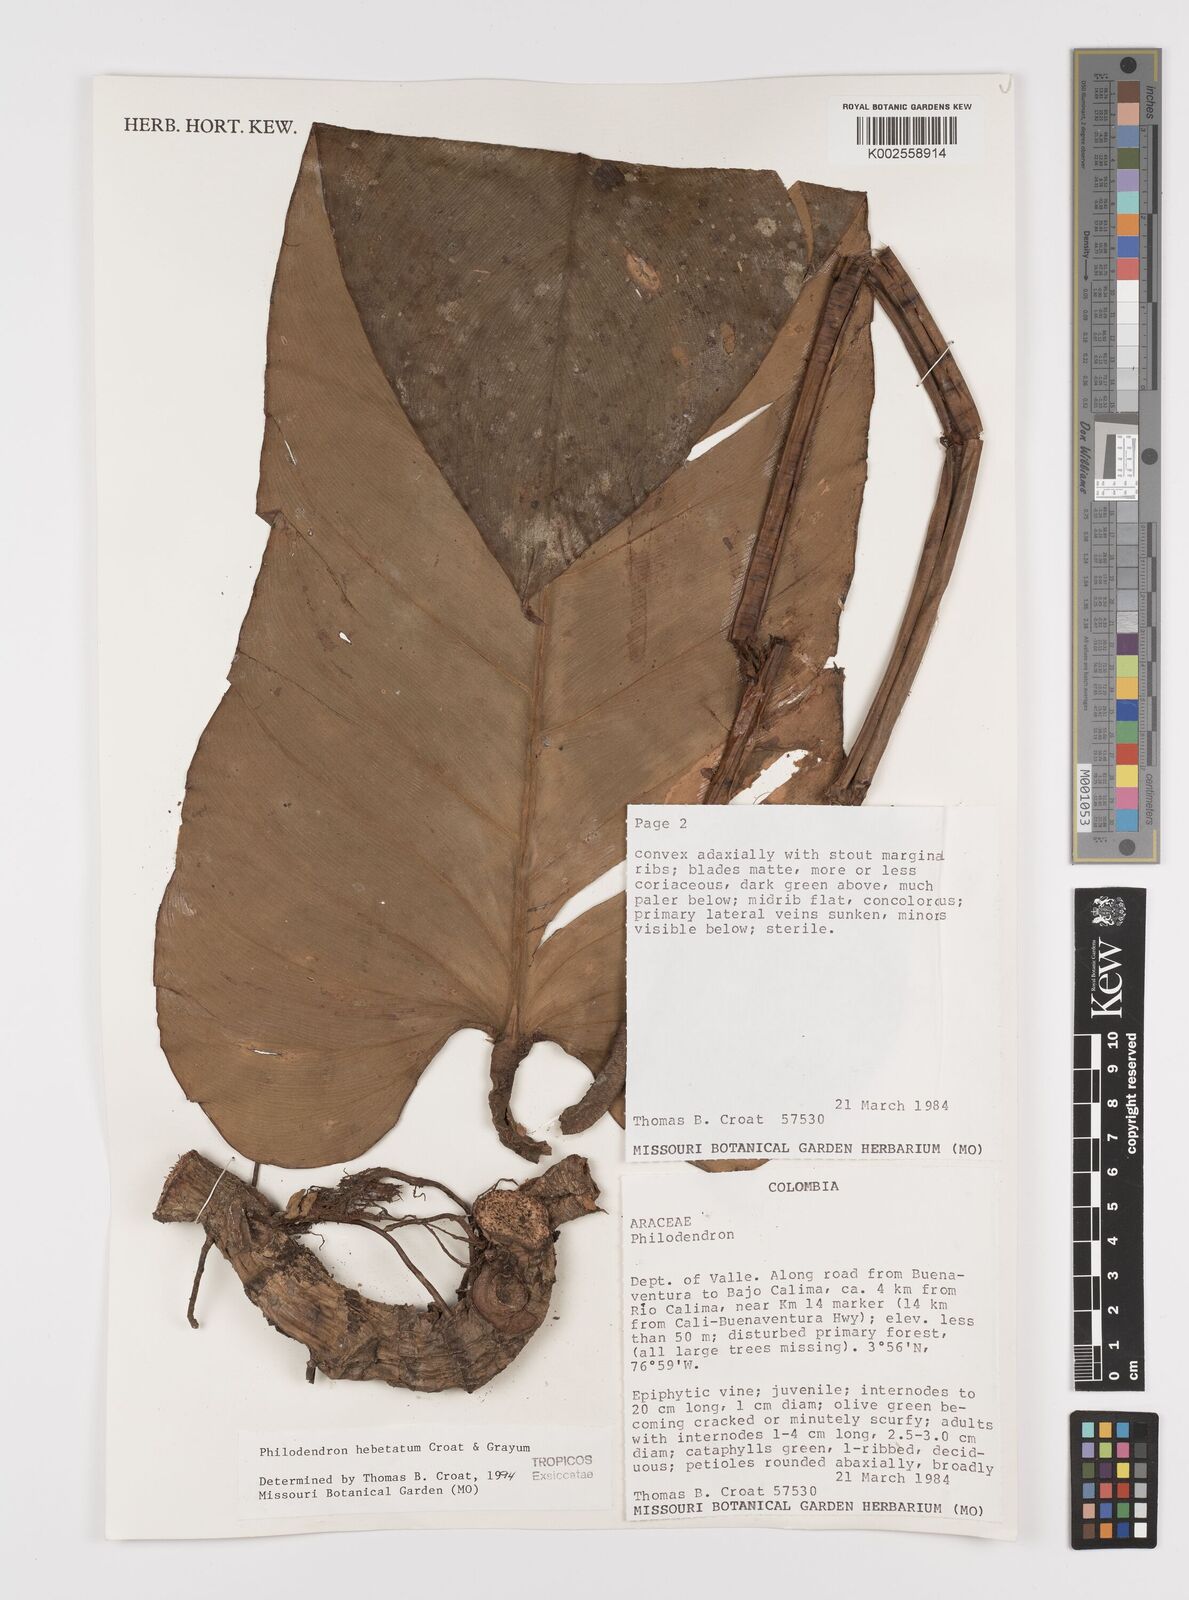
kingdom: Plantae
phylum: Tracheophyta
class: Liliopsida
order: Alismatales
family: Araceae
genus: Philodendron
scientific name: Philodendron hebetatum
